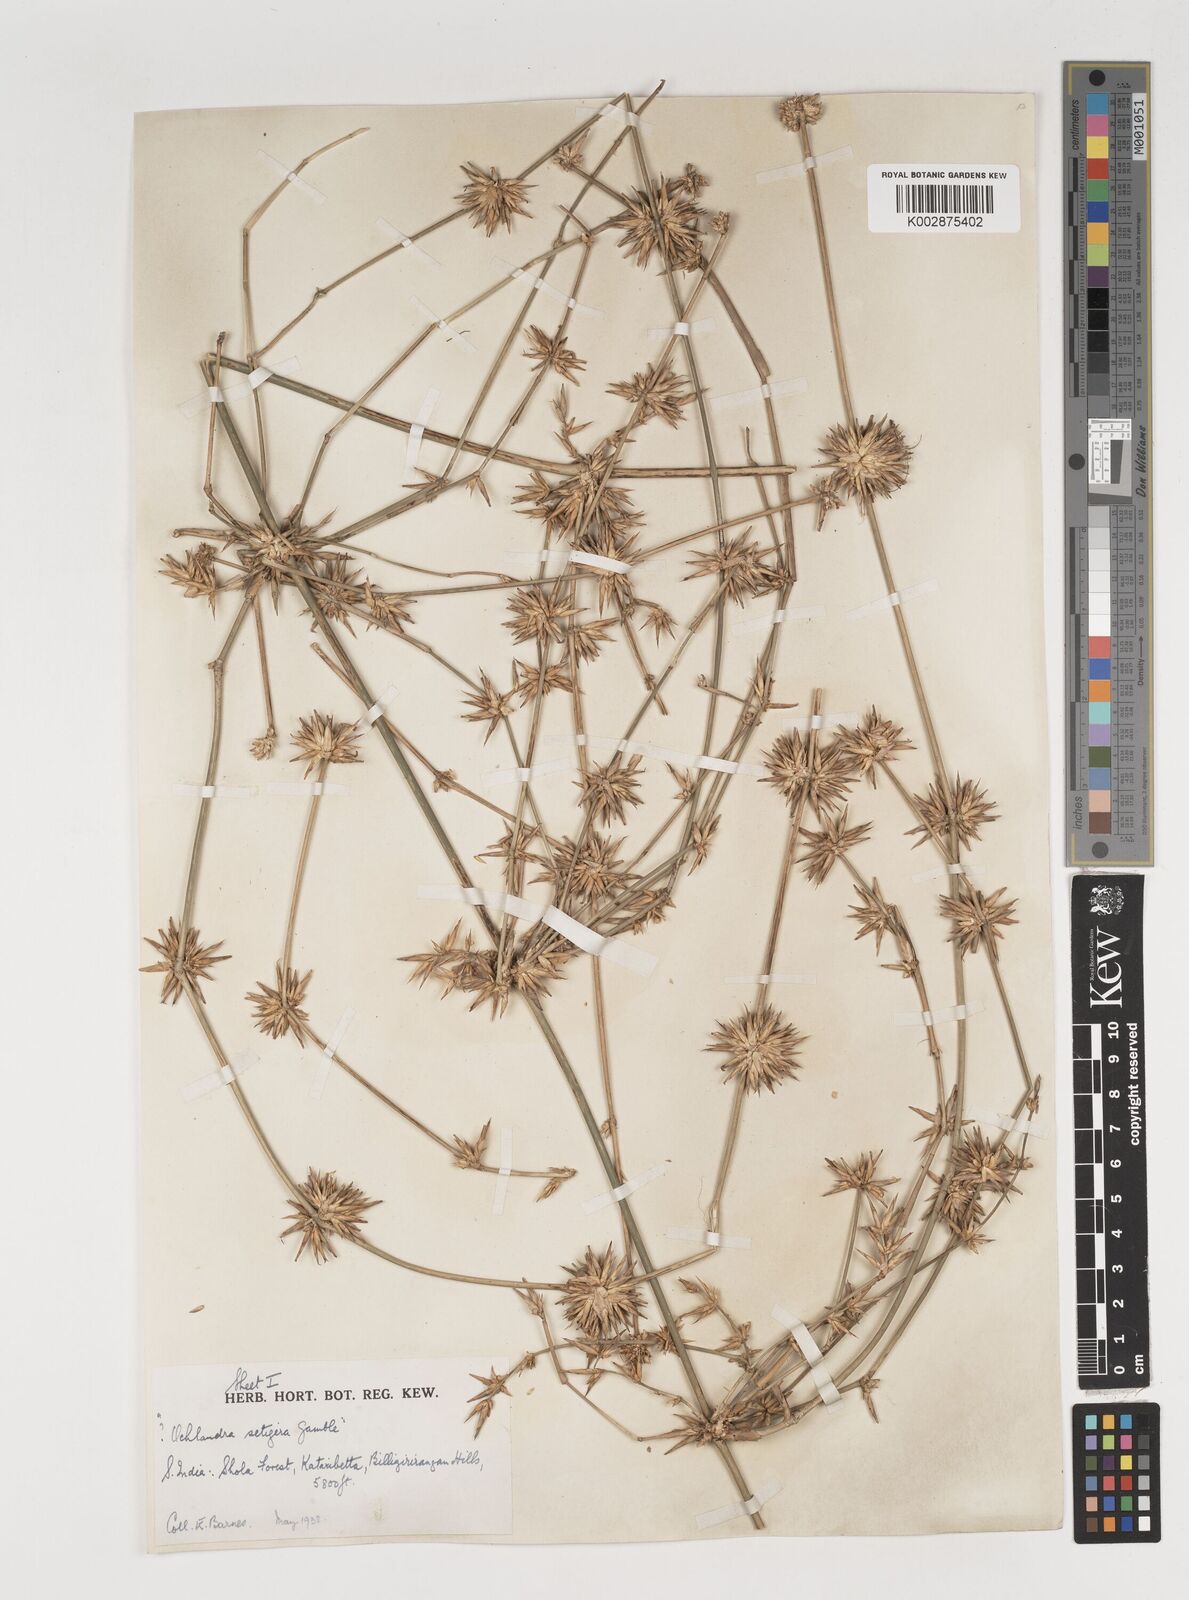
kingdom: Plantae
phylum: Tracheophyta
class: Liliopsida
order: Poales
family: Poaceae
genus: Dendrocalamus
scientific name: Dendrocalamus
